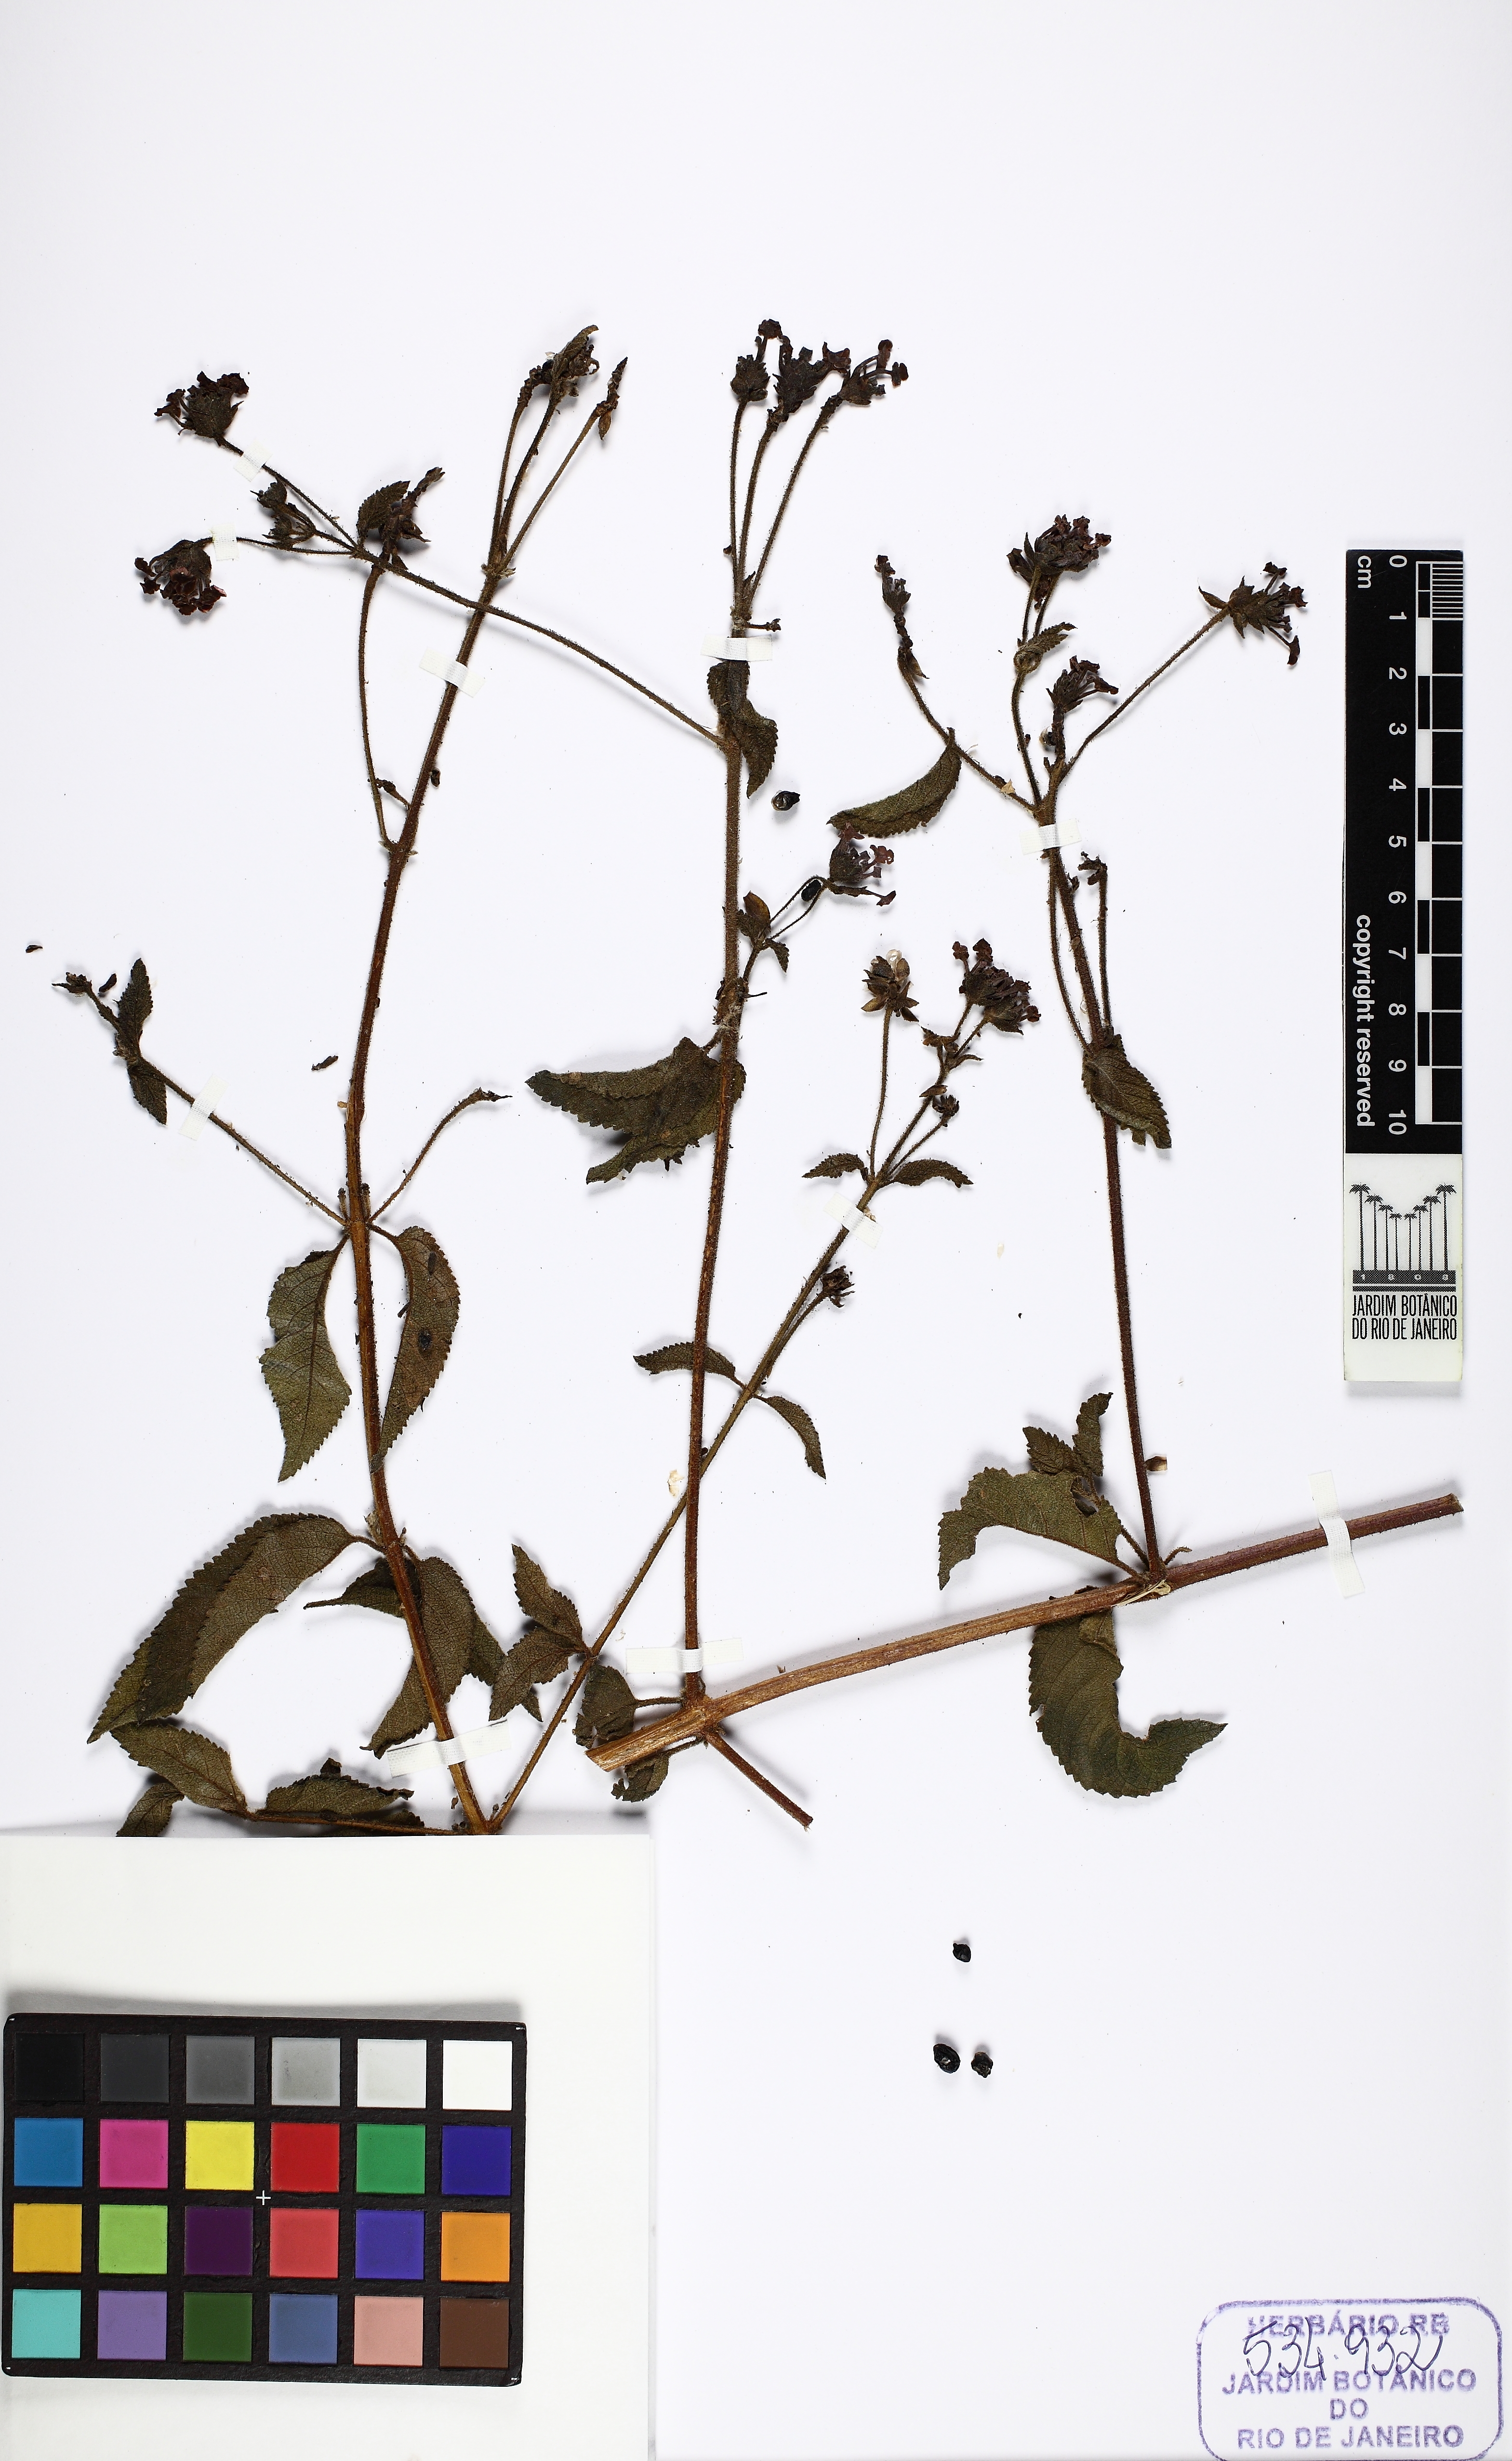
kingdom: Plantae
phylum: Tracheophyta
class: Magnoliopsida
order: Lamiales
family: Verbenaceae
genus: Lantana
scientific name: Lantana
